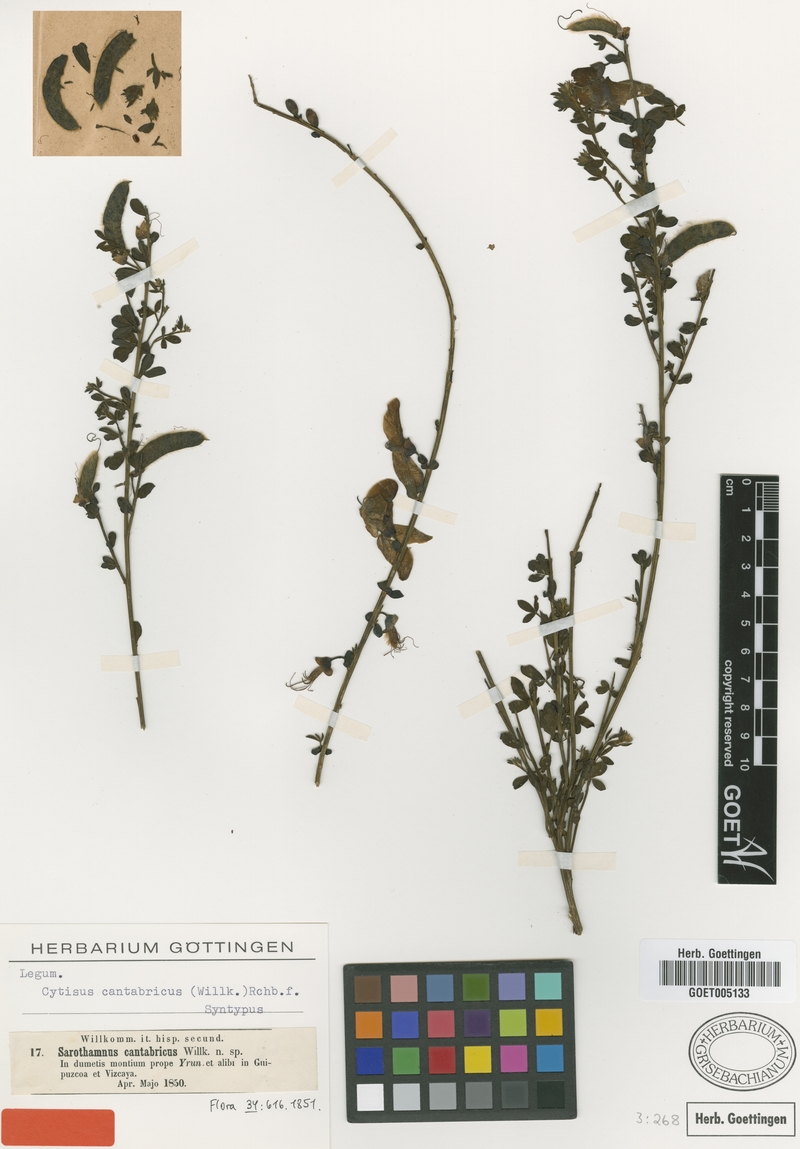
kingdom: Plantae
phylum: Tracheophyta
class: Magnoliopsida
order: Fabales
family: Fabaceae
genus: Cytisus
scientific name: Cytisus cantabricus
